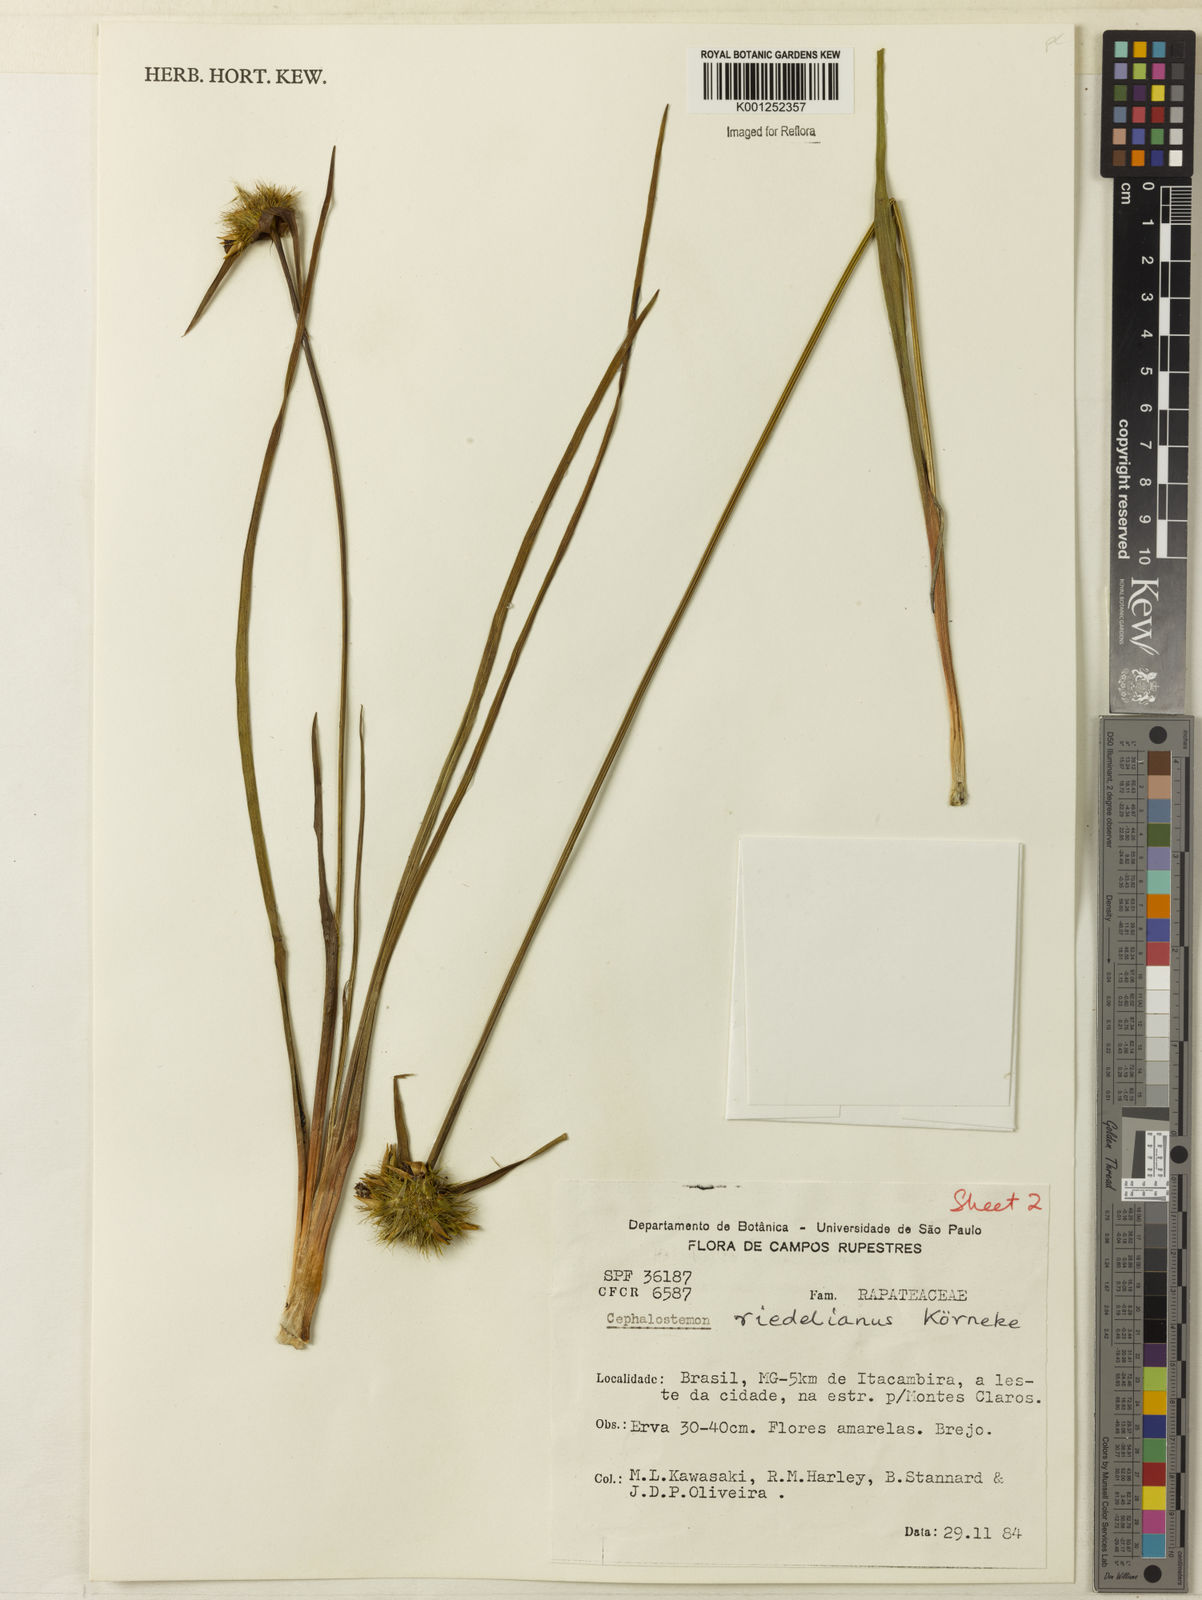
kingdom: Plantae
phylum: Tracheophyta
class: Liliopsida
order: Poales
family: Rapateaceae
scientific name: Rapateaceae
